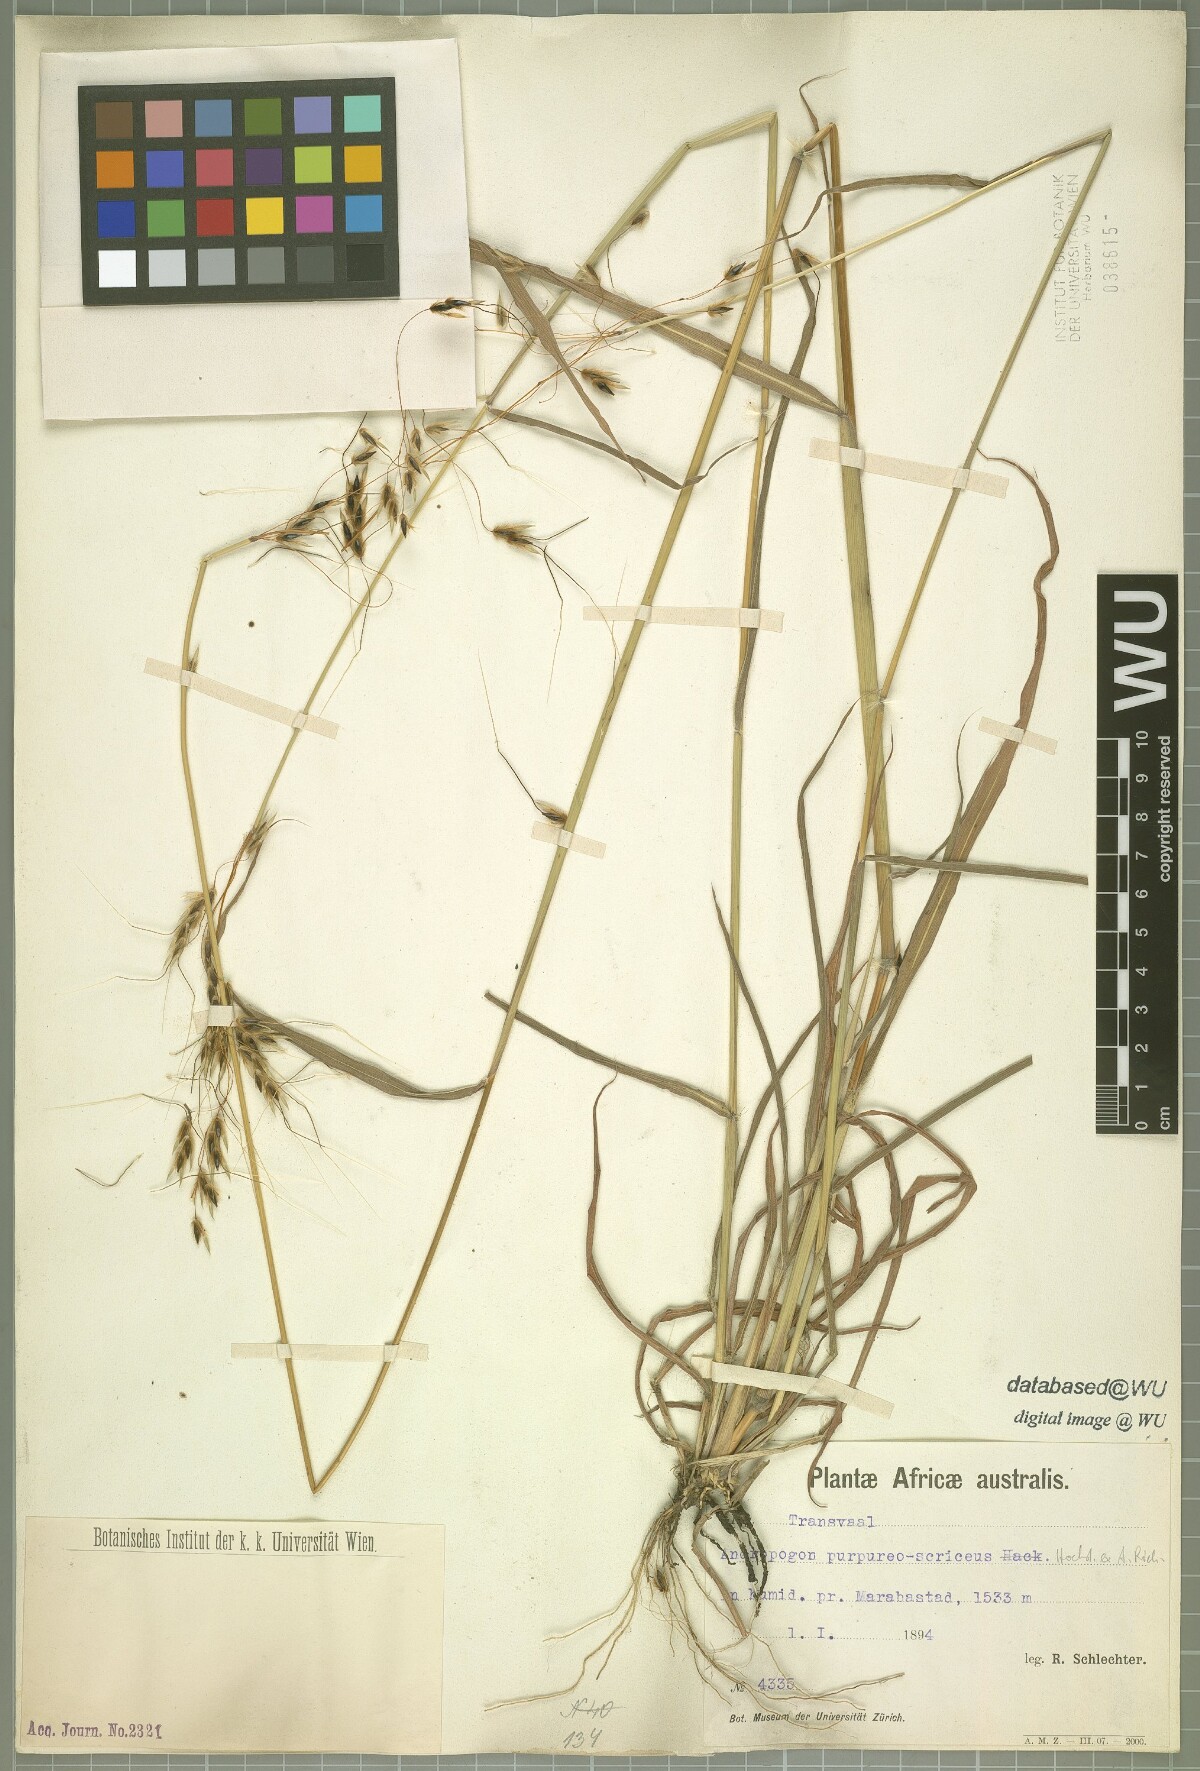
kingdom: Plantae
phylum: Tracheophyta
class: Liliopsida
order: Poales
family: Poaceae
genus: Sarga
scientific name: Sarga purpureosericea
